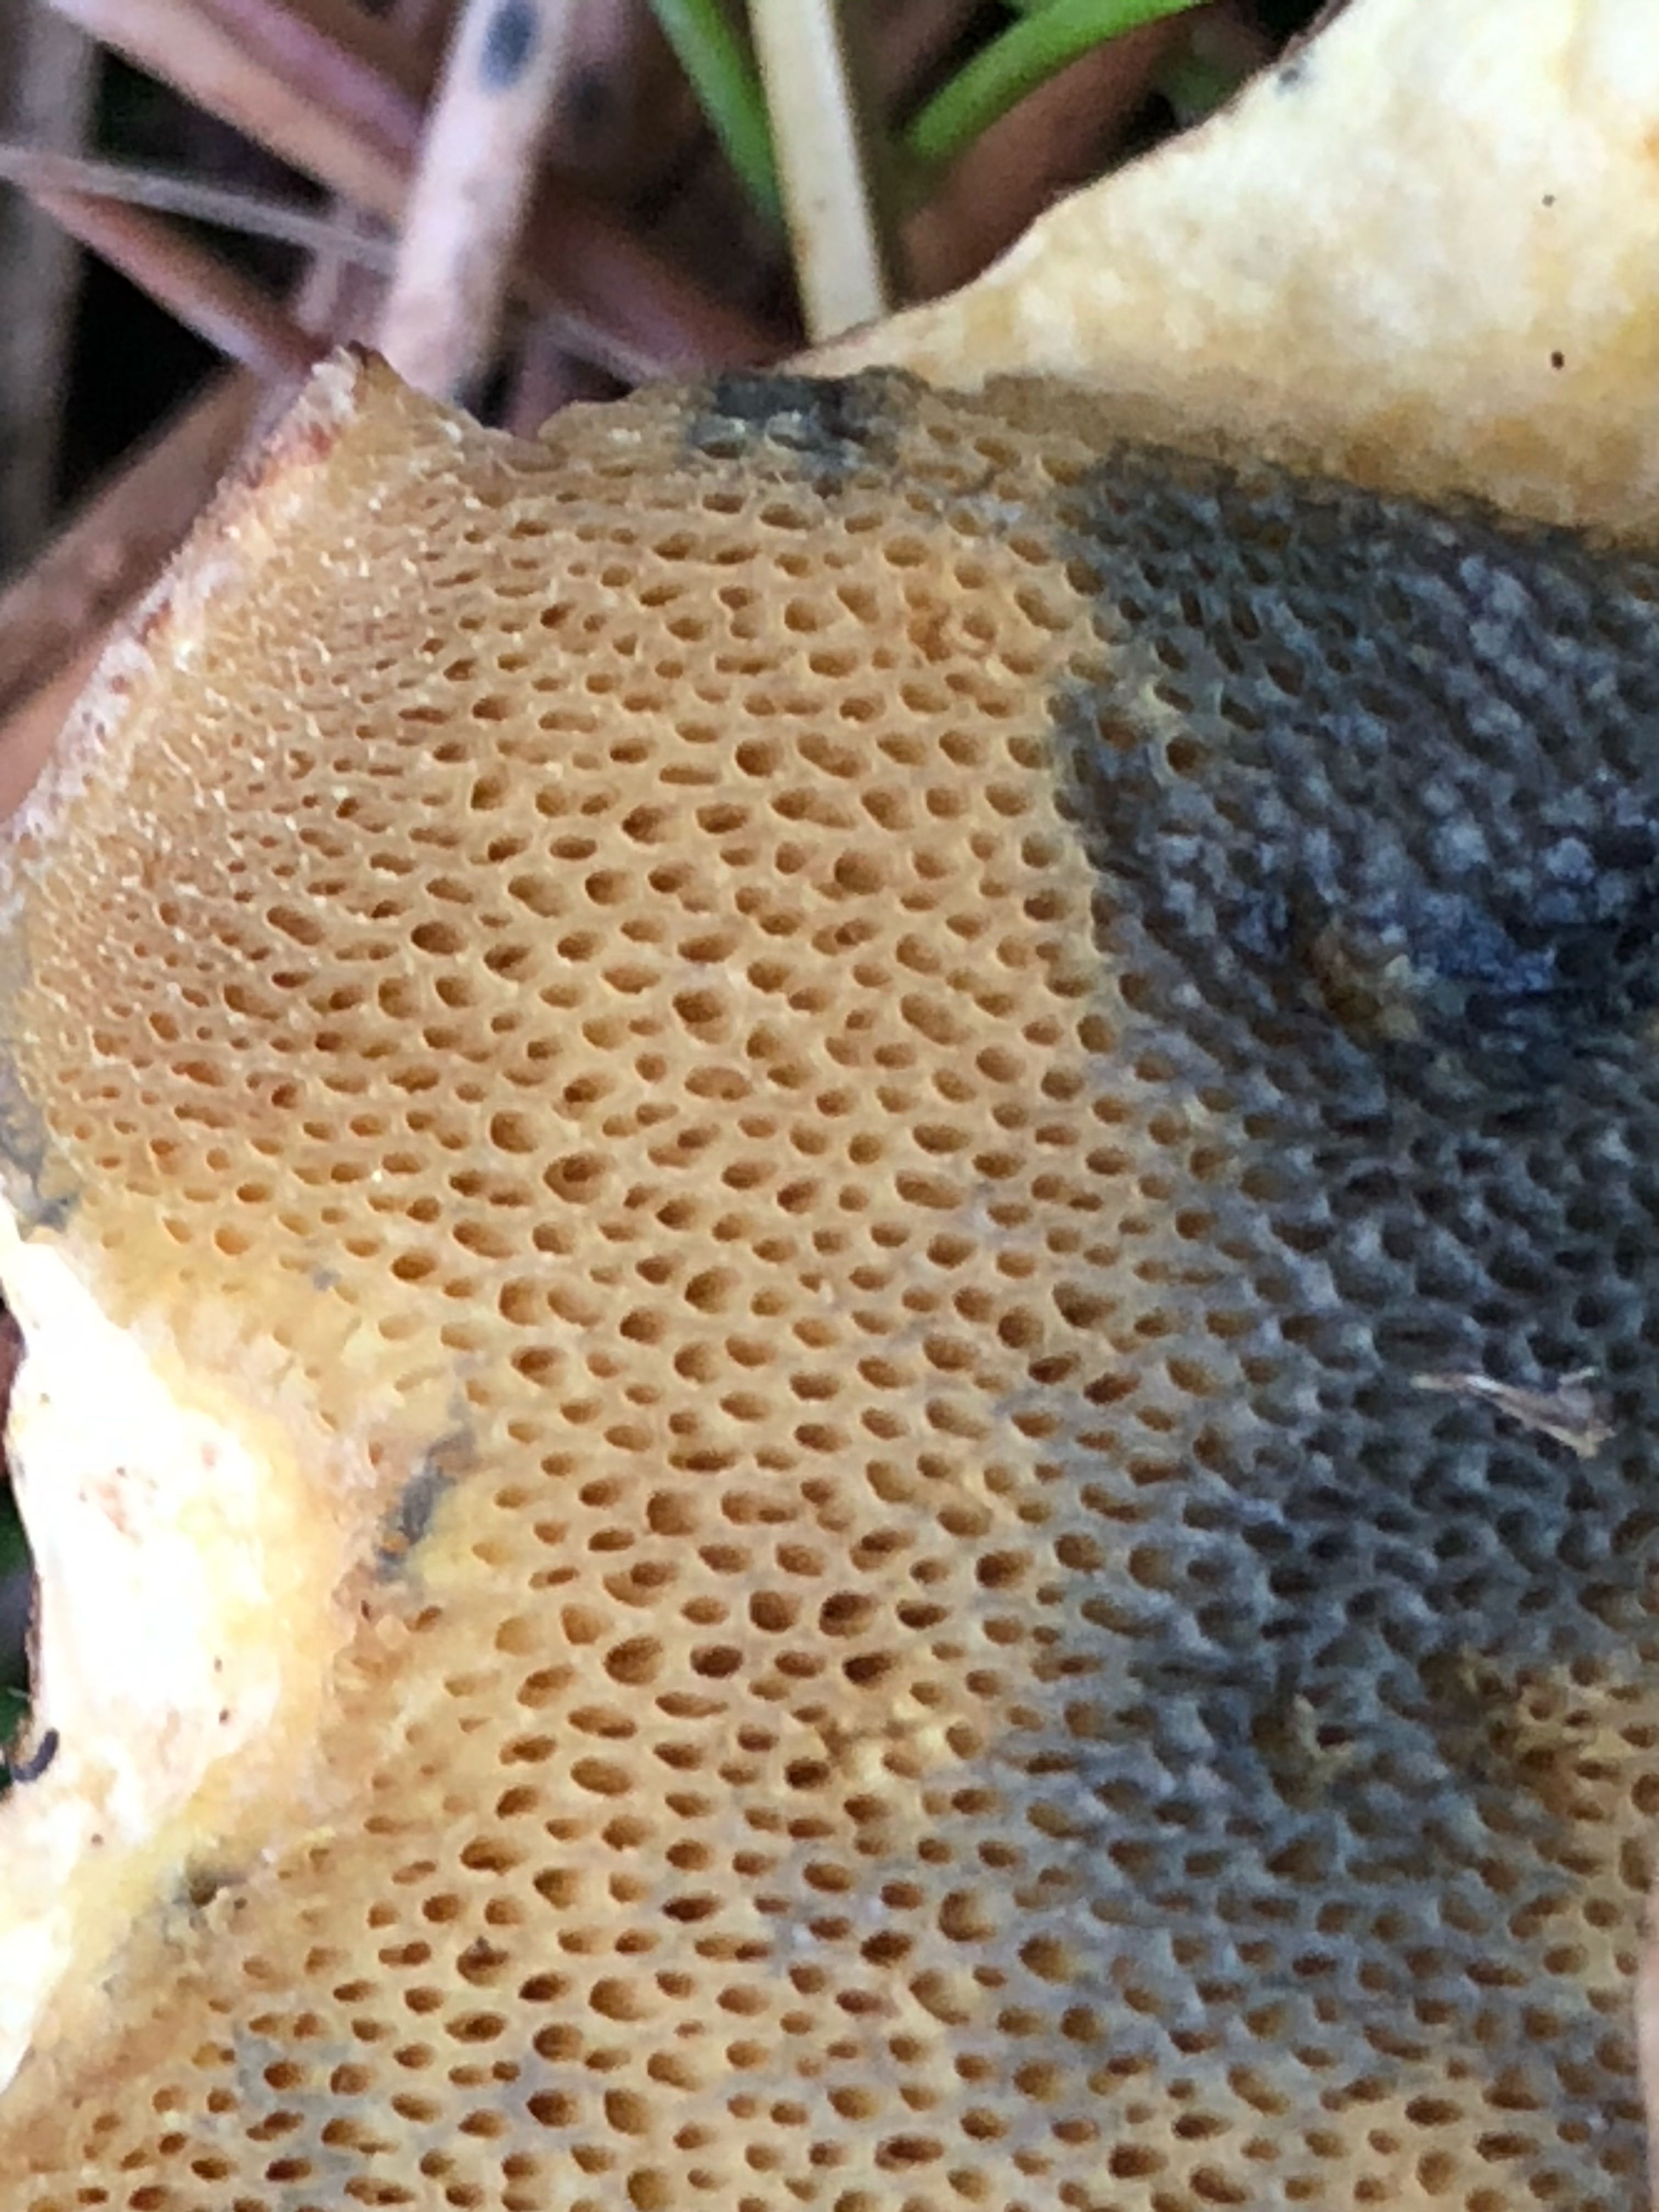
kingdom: Fungi
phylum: Basidiomycota
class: Agaricomycetes
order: Boletales
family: Suillaceae
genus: Suillus
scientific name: Suillus variegatus
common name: broget slimrørhat
